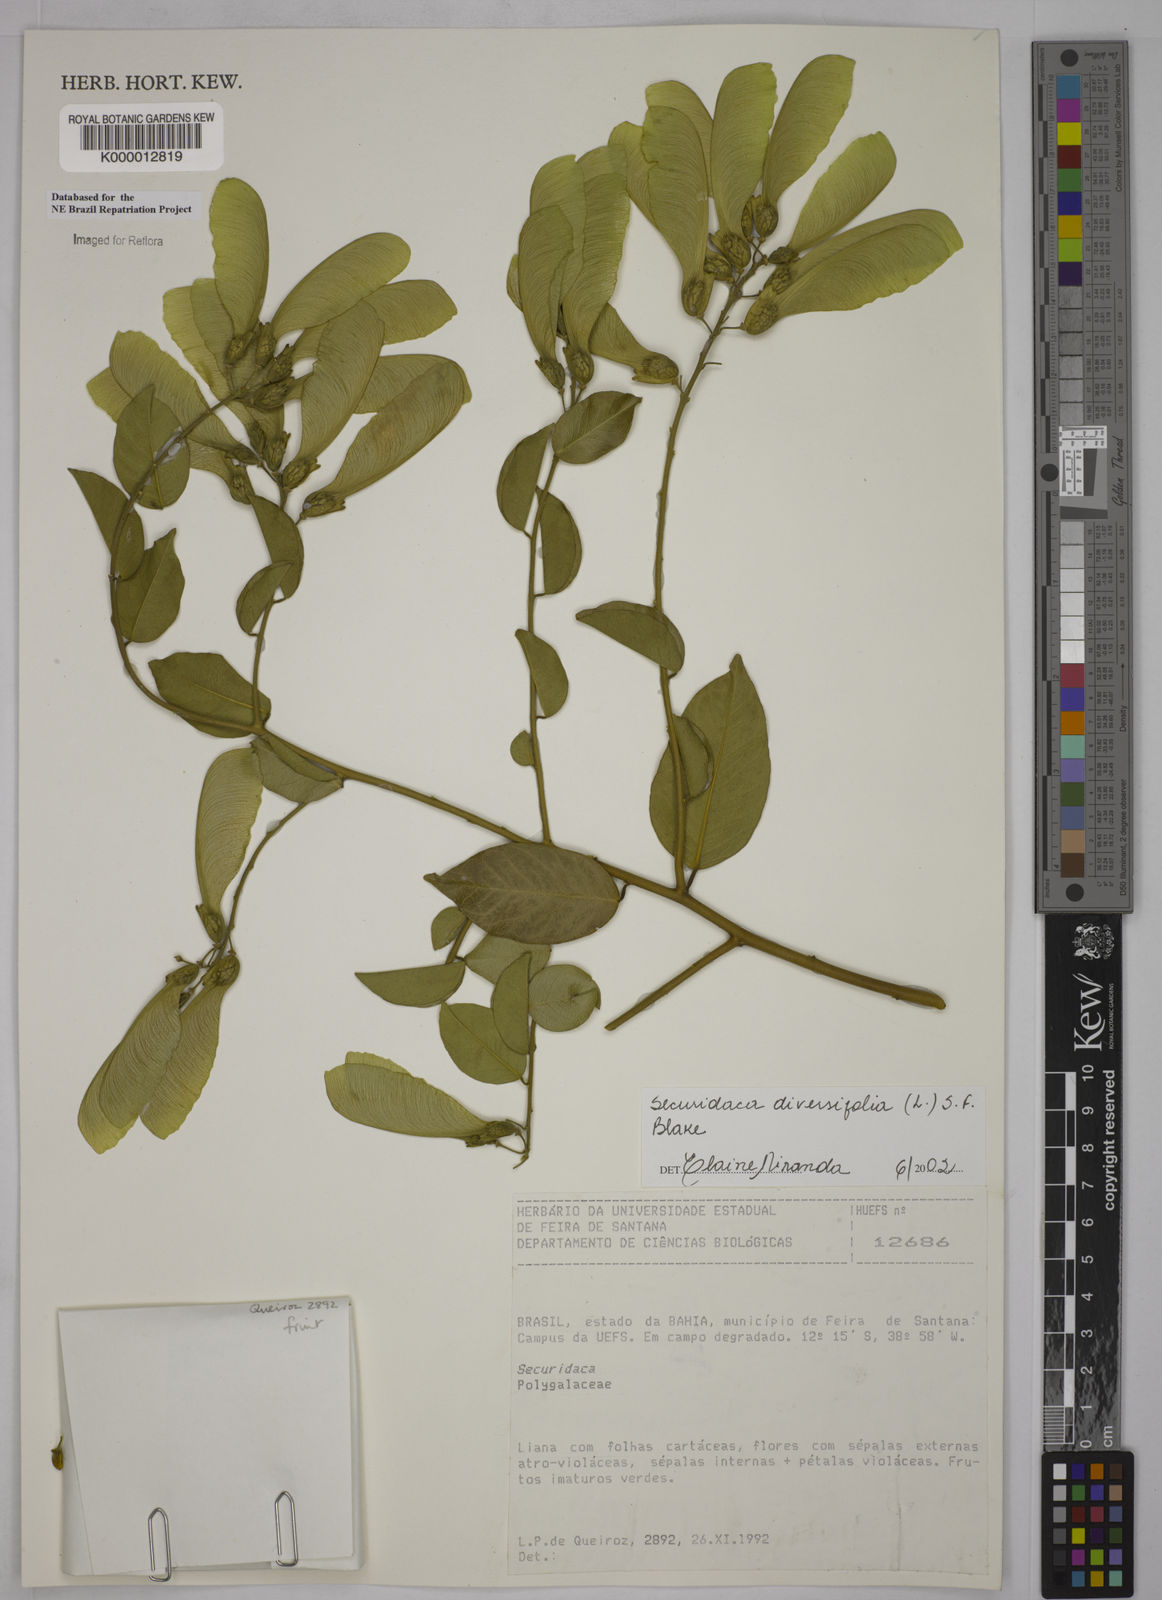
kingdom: Plantae
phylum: Tracheophyta
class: Magnoliopsida
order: Fabales
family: Polygalaceae
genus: Securidaca
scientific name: Securidaca diversifolia
